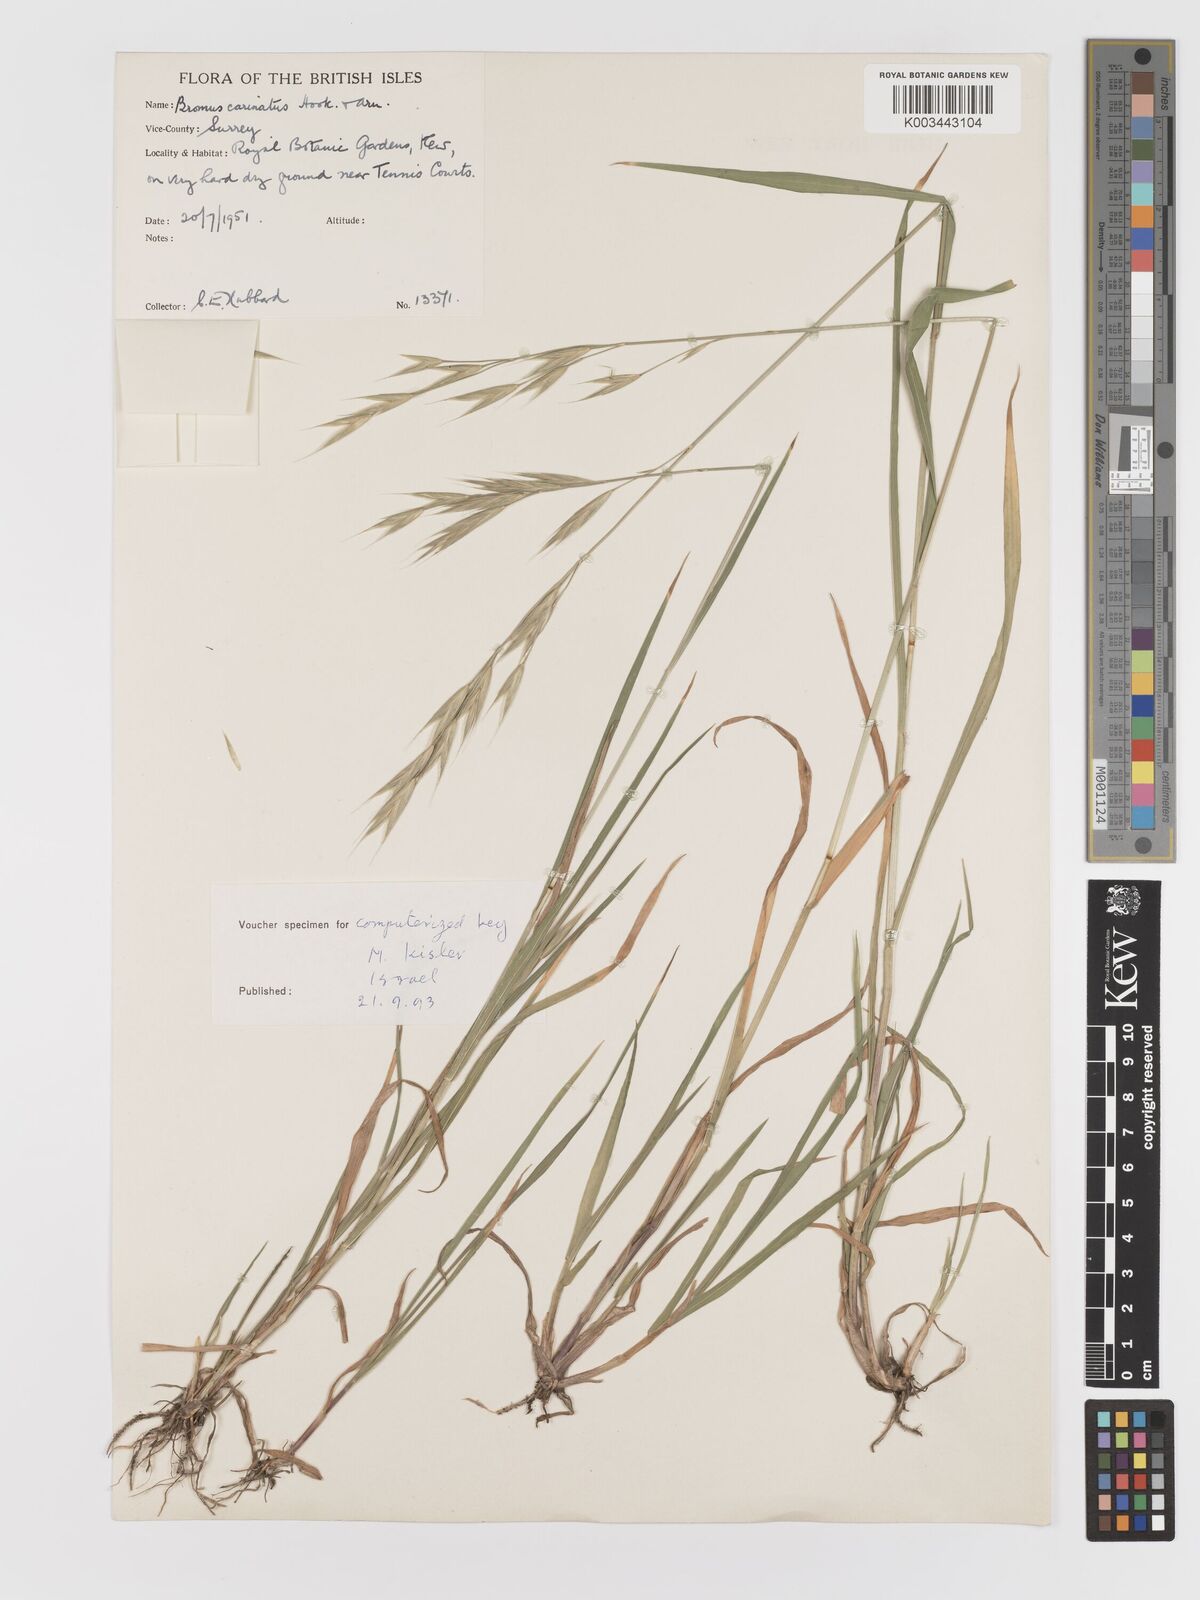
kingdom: Plantae
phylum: Tracheophyta
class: Liliopsida
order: Poales
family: Poaceae
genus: Bromus
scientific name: Bromus carinatus
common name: Mountain brome
